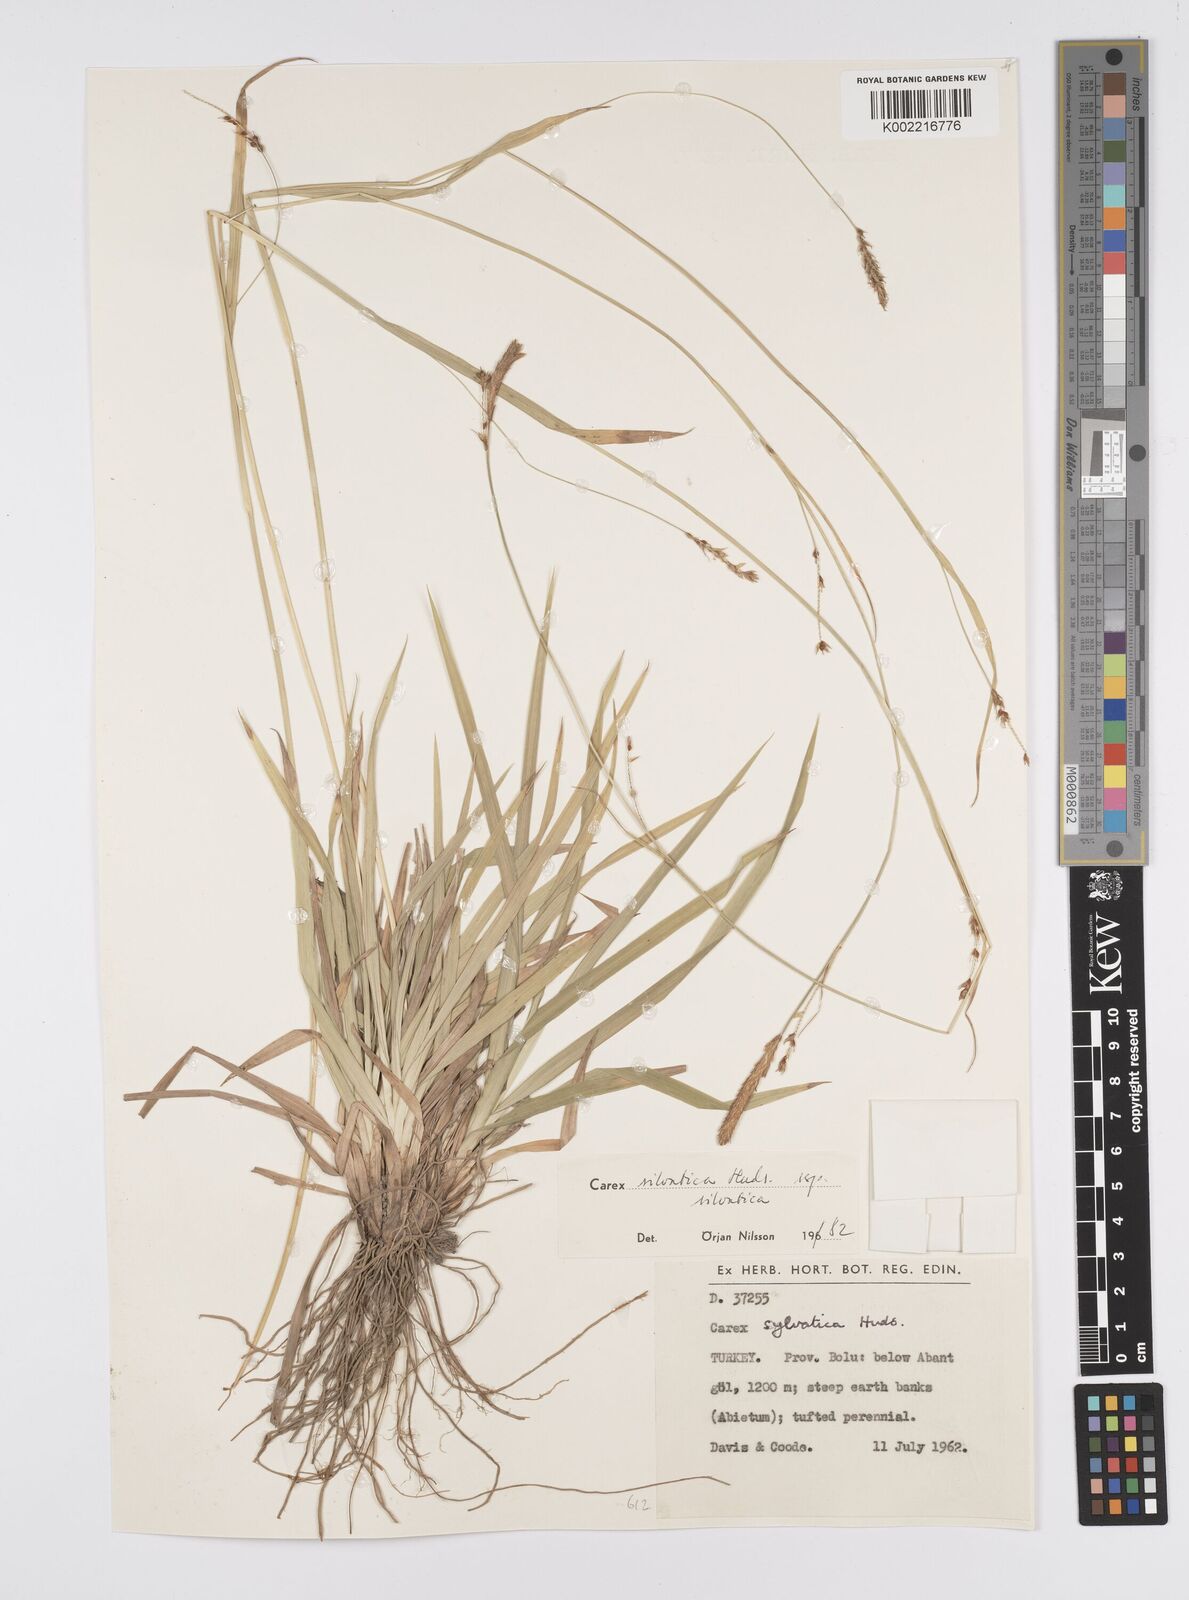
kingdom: Plantae
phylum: Tracheophyta
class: Liliopsida
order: Poales
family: Cyperaceae
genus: Carex
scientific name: Carex sylvatica
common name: Wood-sedge
